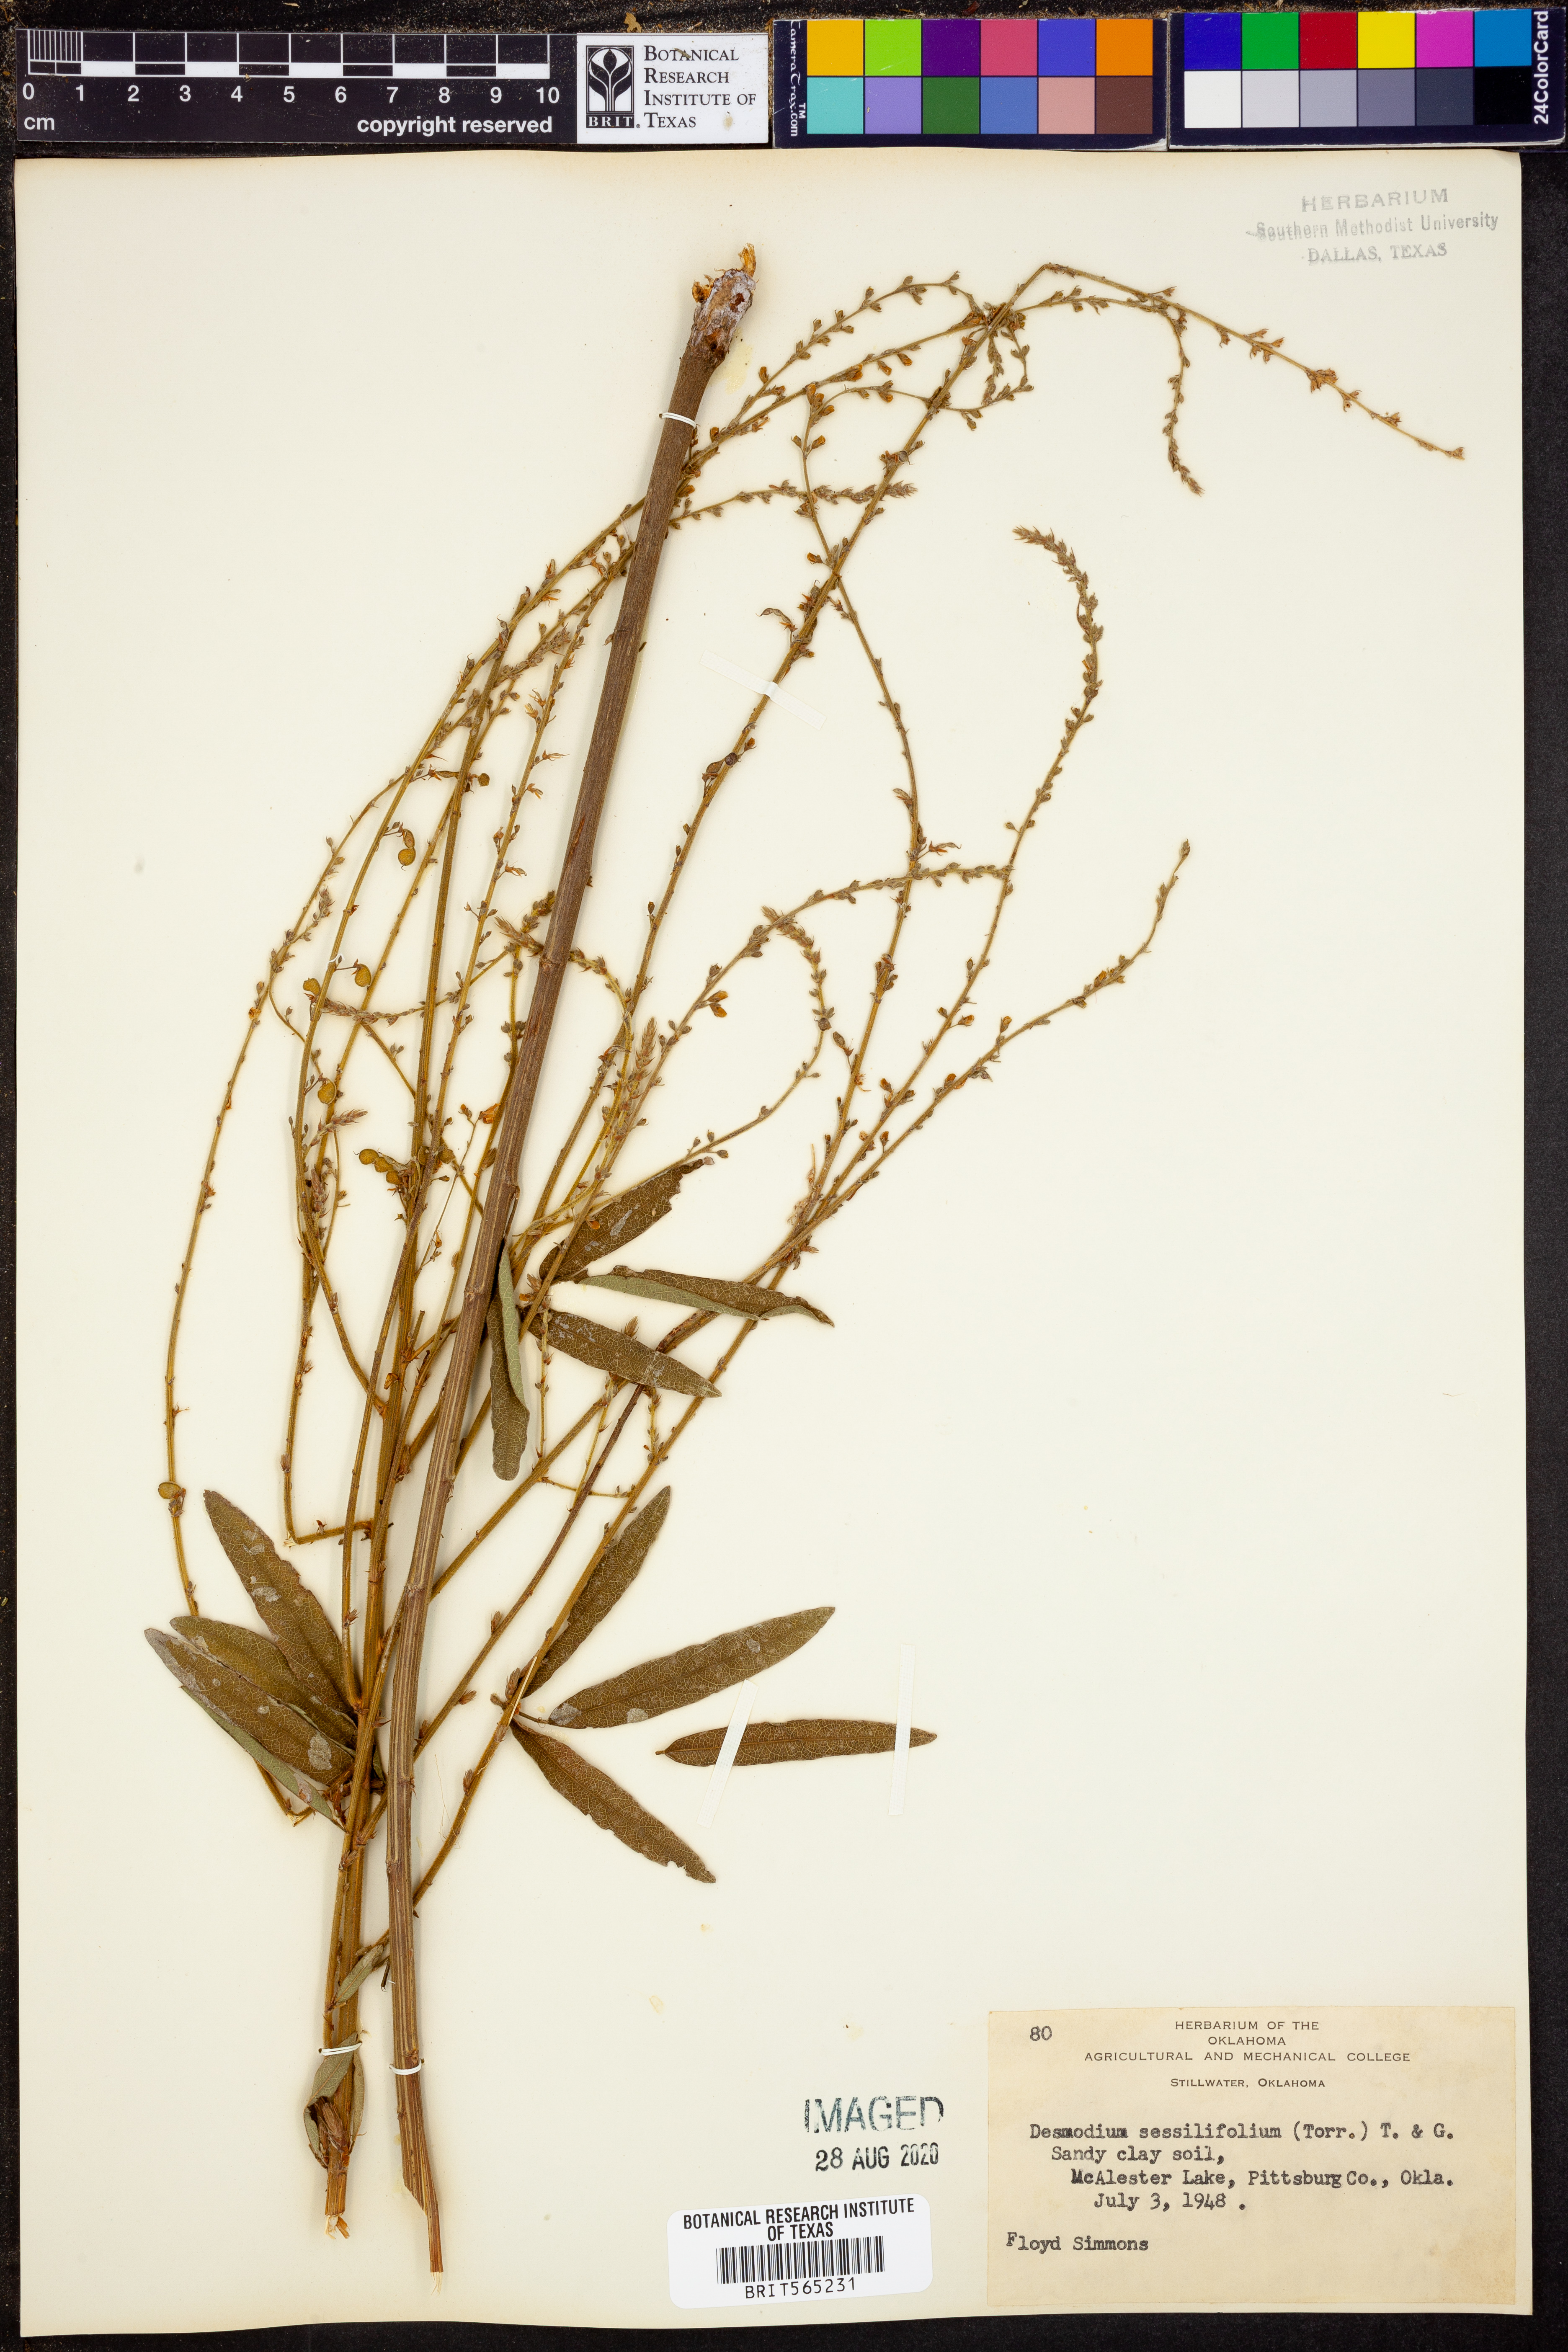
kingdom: Plantae
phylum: Tracheophyta
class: Magnoliopsida
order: Fabales
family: Fabaceae
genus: Desmodium
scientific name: Desmodium sessilifolium
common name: Sessile tick-clover
